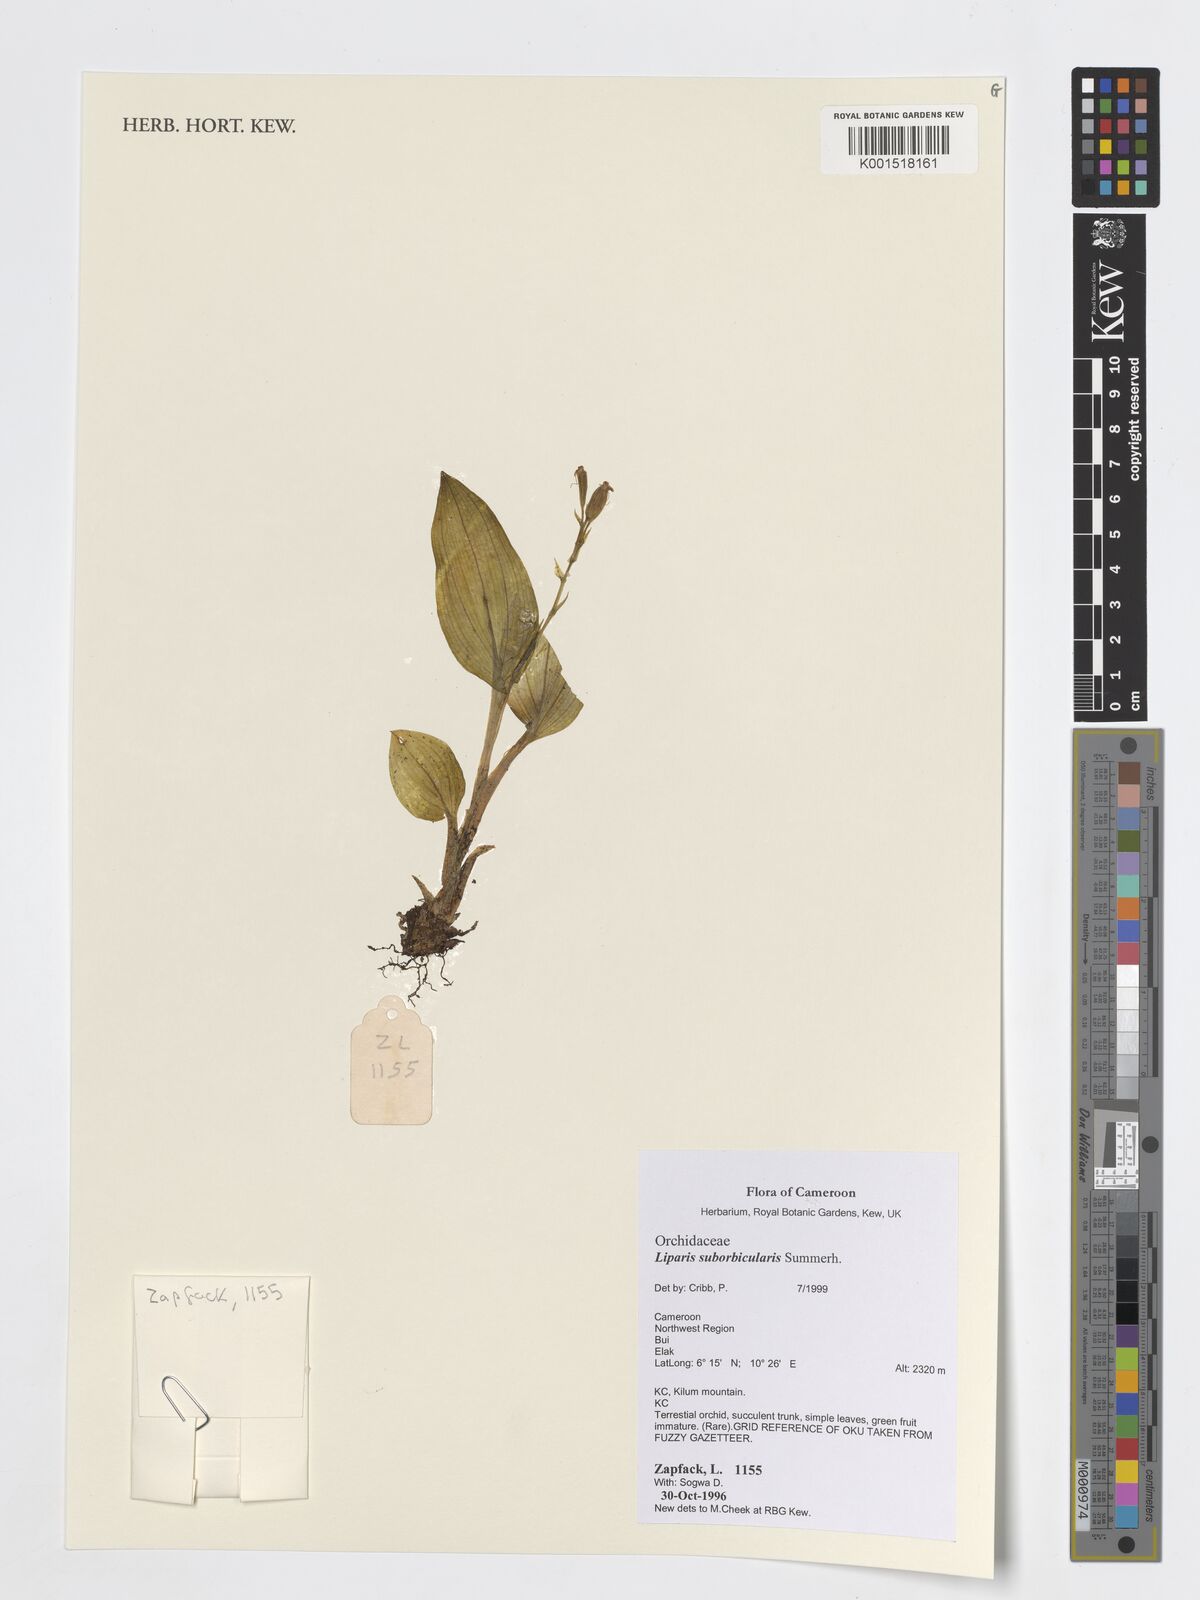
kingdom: Plantae
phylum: Tracheophyta
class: Liliopsida
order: Asparagales
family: Orchidaceae
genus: Liparis
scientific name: Liparis suborbicularis
